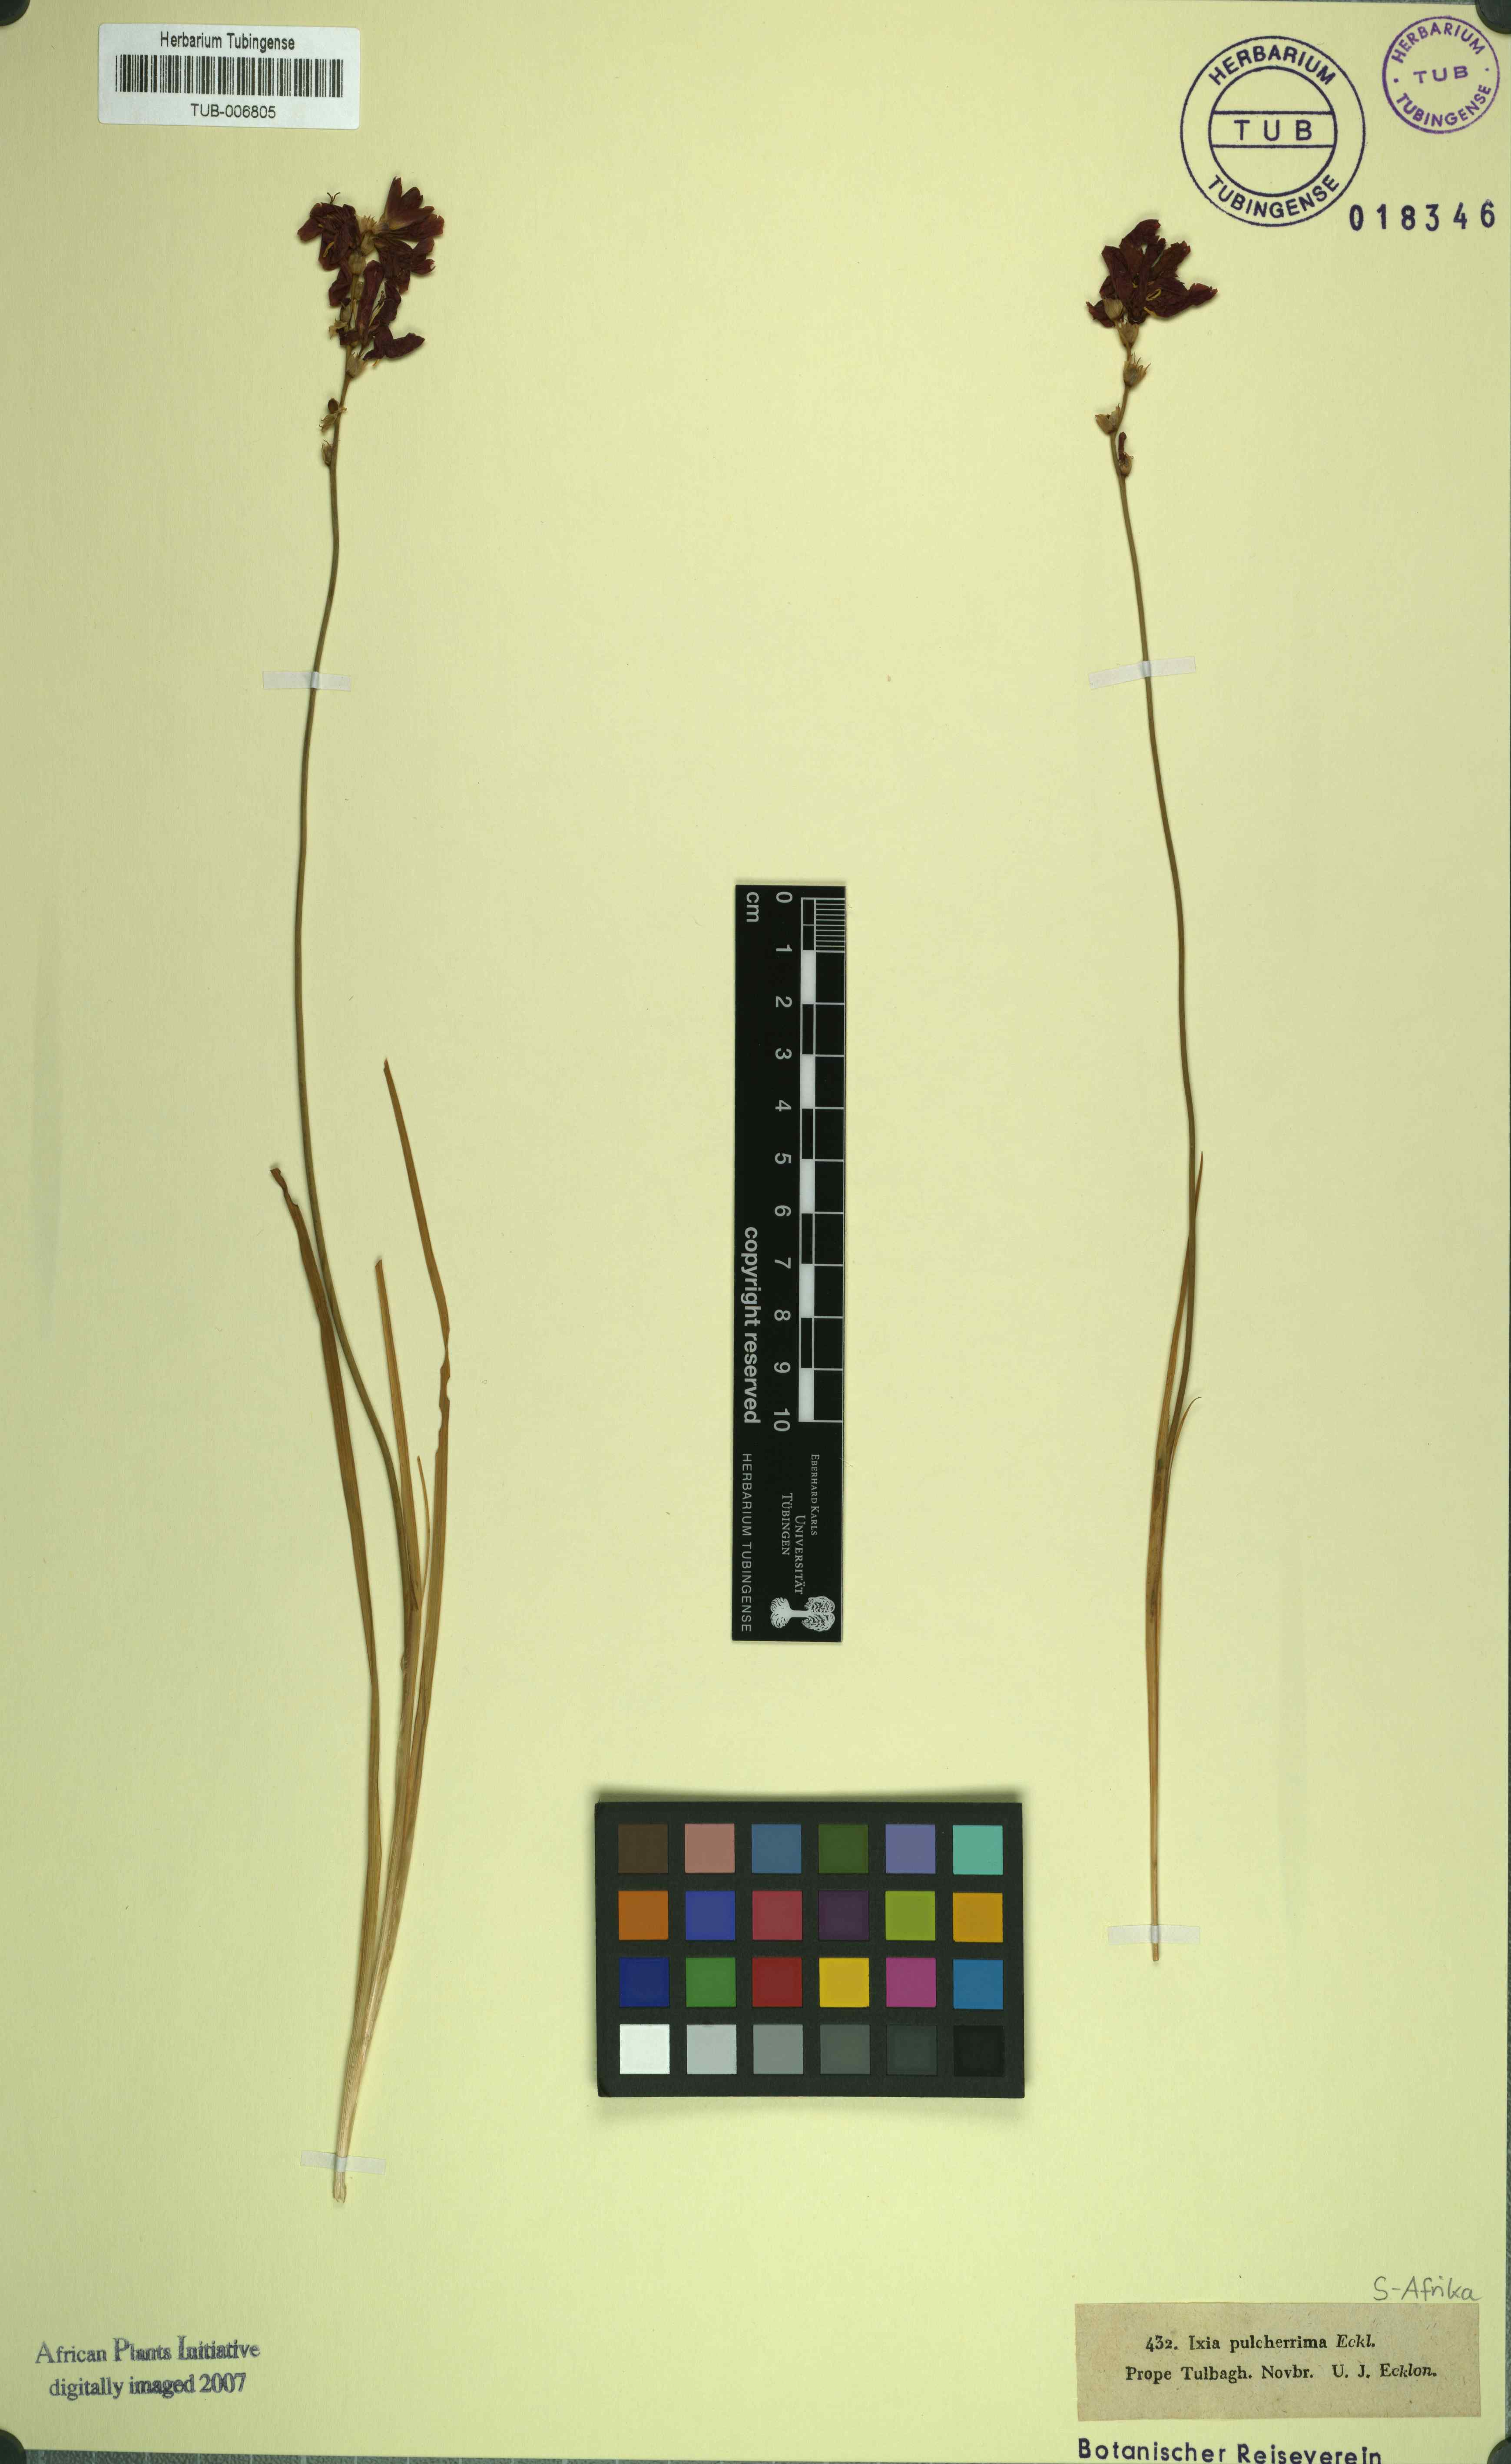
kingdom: Plantae
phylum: Tracheophyta
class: Liliopsida
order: Asparagales
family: Iridaceae
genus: Ixia
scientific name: Ixia campanulata
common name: Red corn-lily
